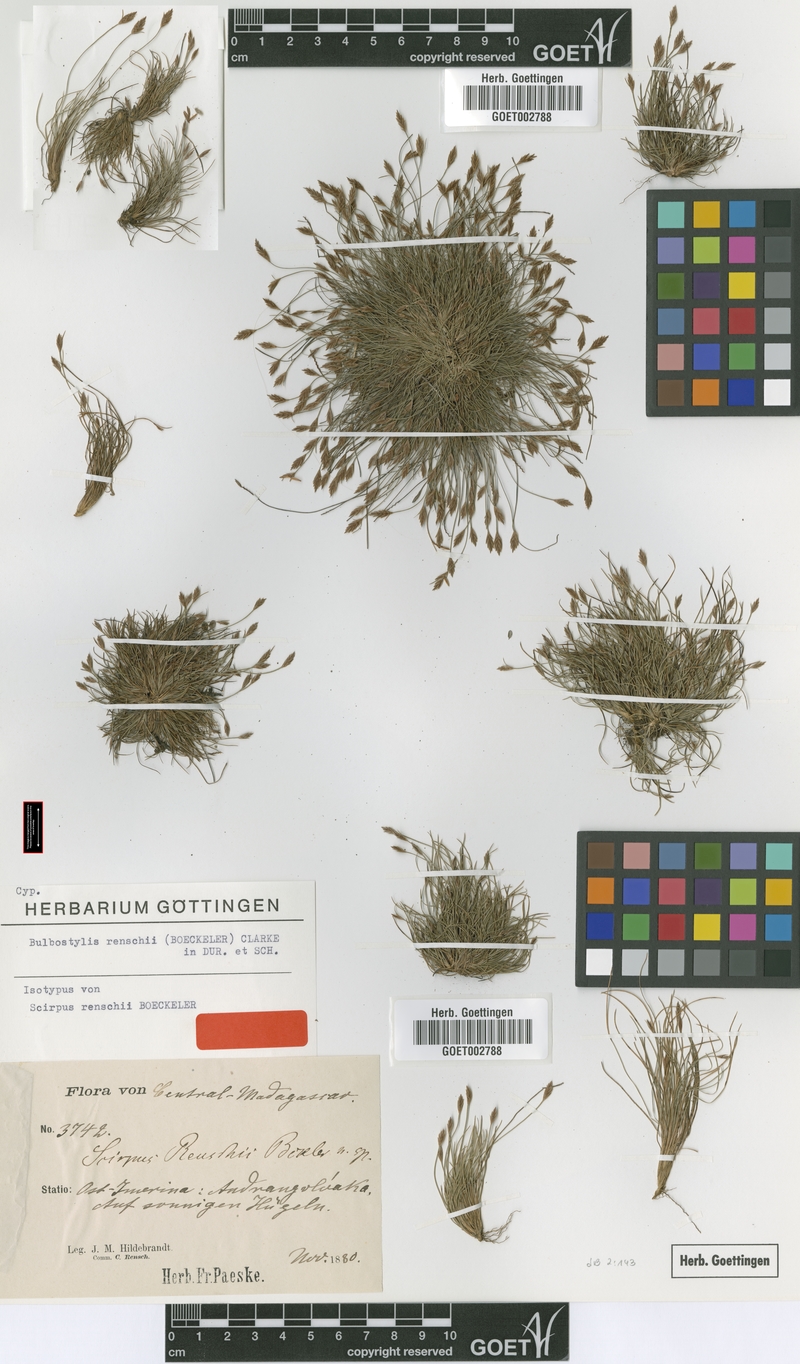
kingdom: Plantae
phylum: Tracheophyta
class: Liliopsida
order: Poales
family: Cyperaceae
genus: Bulbostylis
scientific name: Bulbostylis renschii
